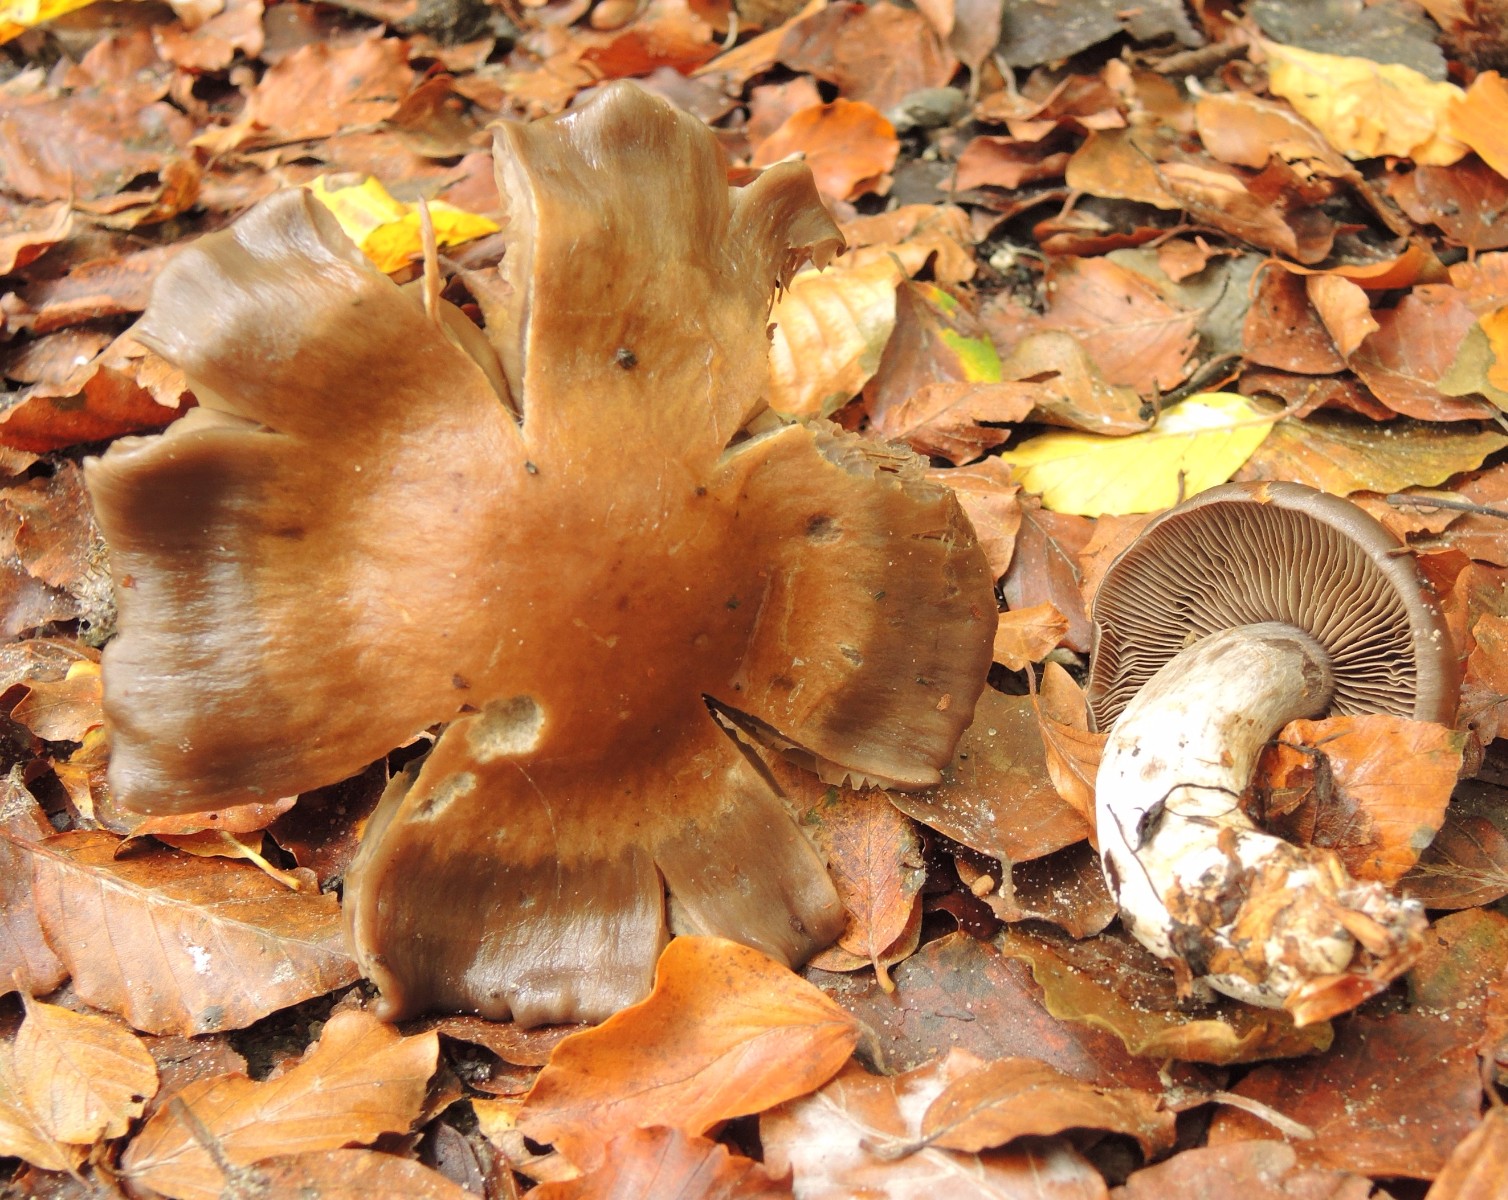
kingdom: Fungi
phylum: Basidiomycota
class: Agaricomycetes
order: Agaricales
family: Cortinariaceae
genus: Cortinarius
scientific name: Cortinarius
